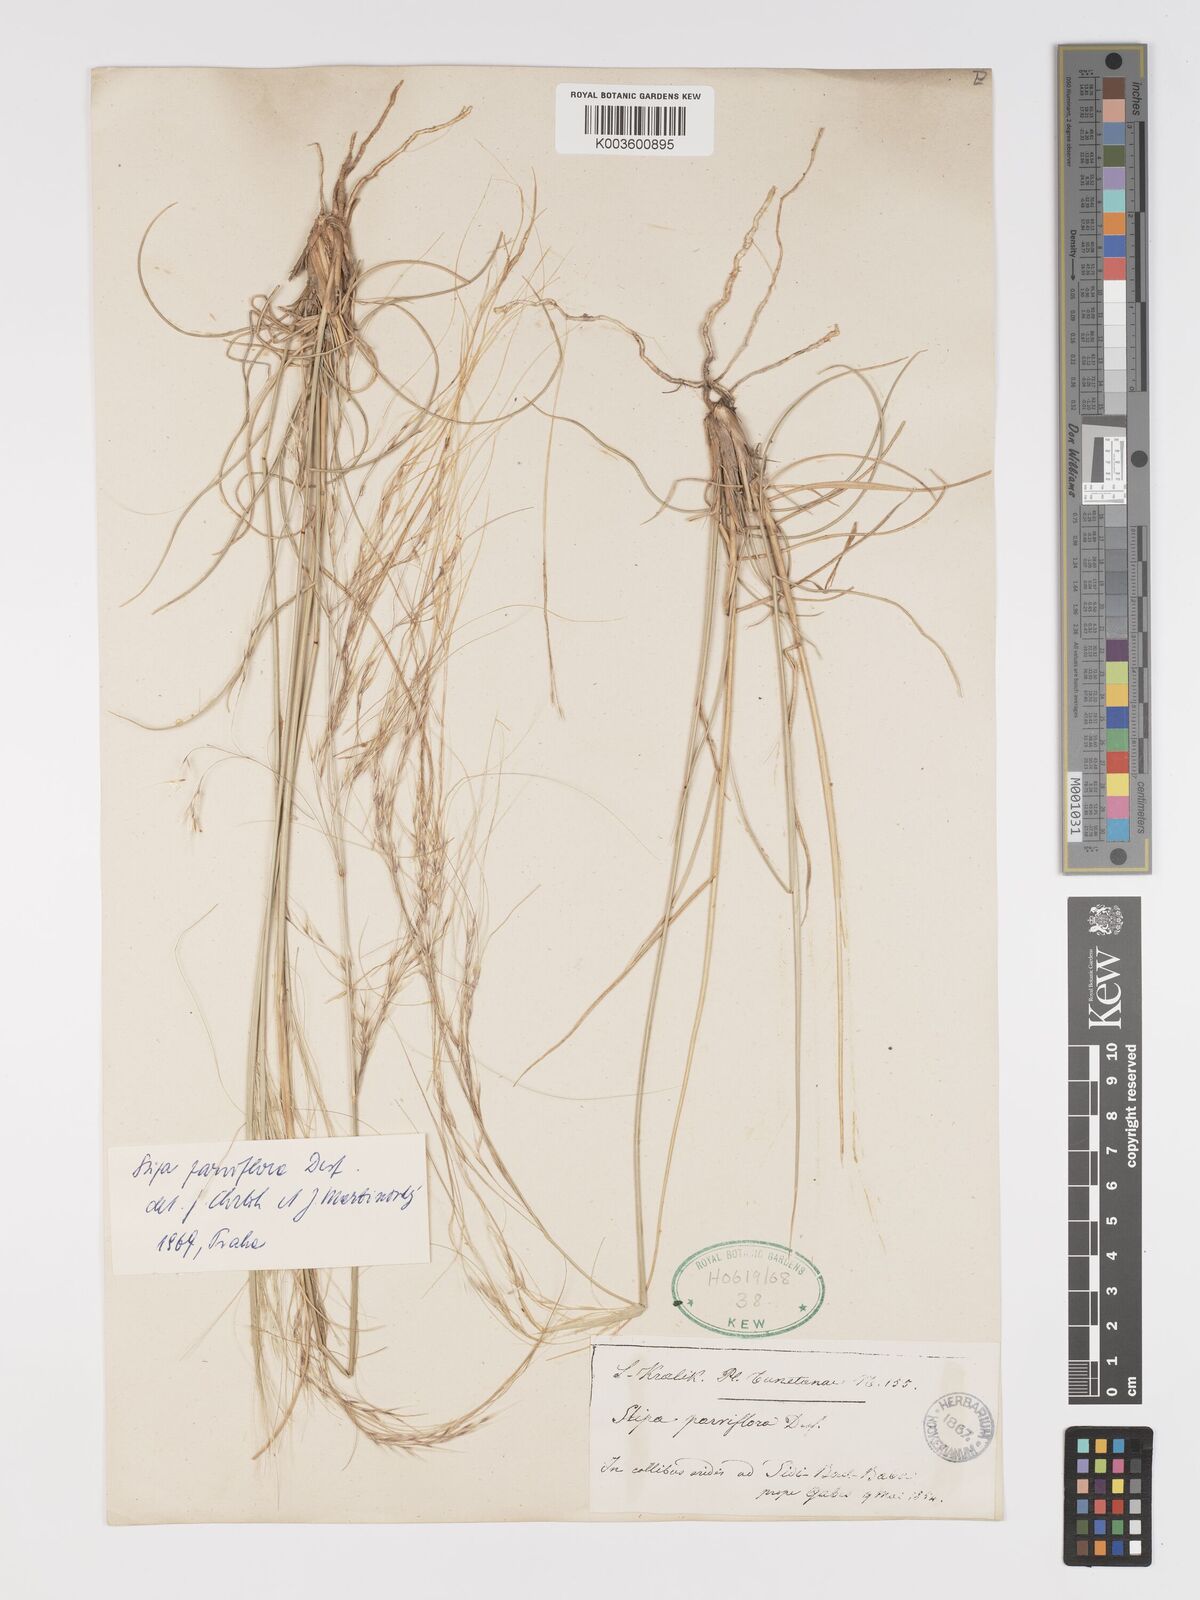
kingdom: Plantae
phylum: Tracheophyta
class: Liliopsida
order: Poales
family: Poaceae
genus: Achnatherum
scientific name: Achnatherum parviflorum
